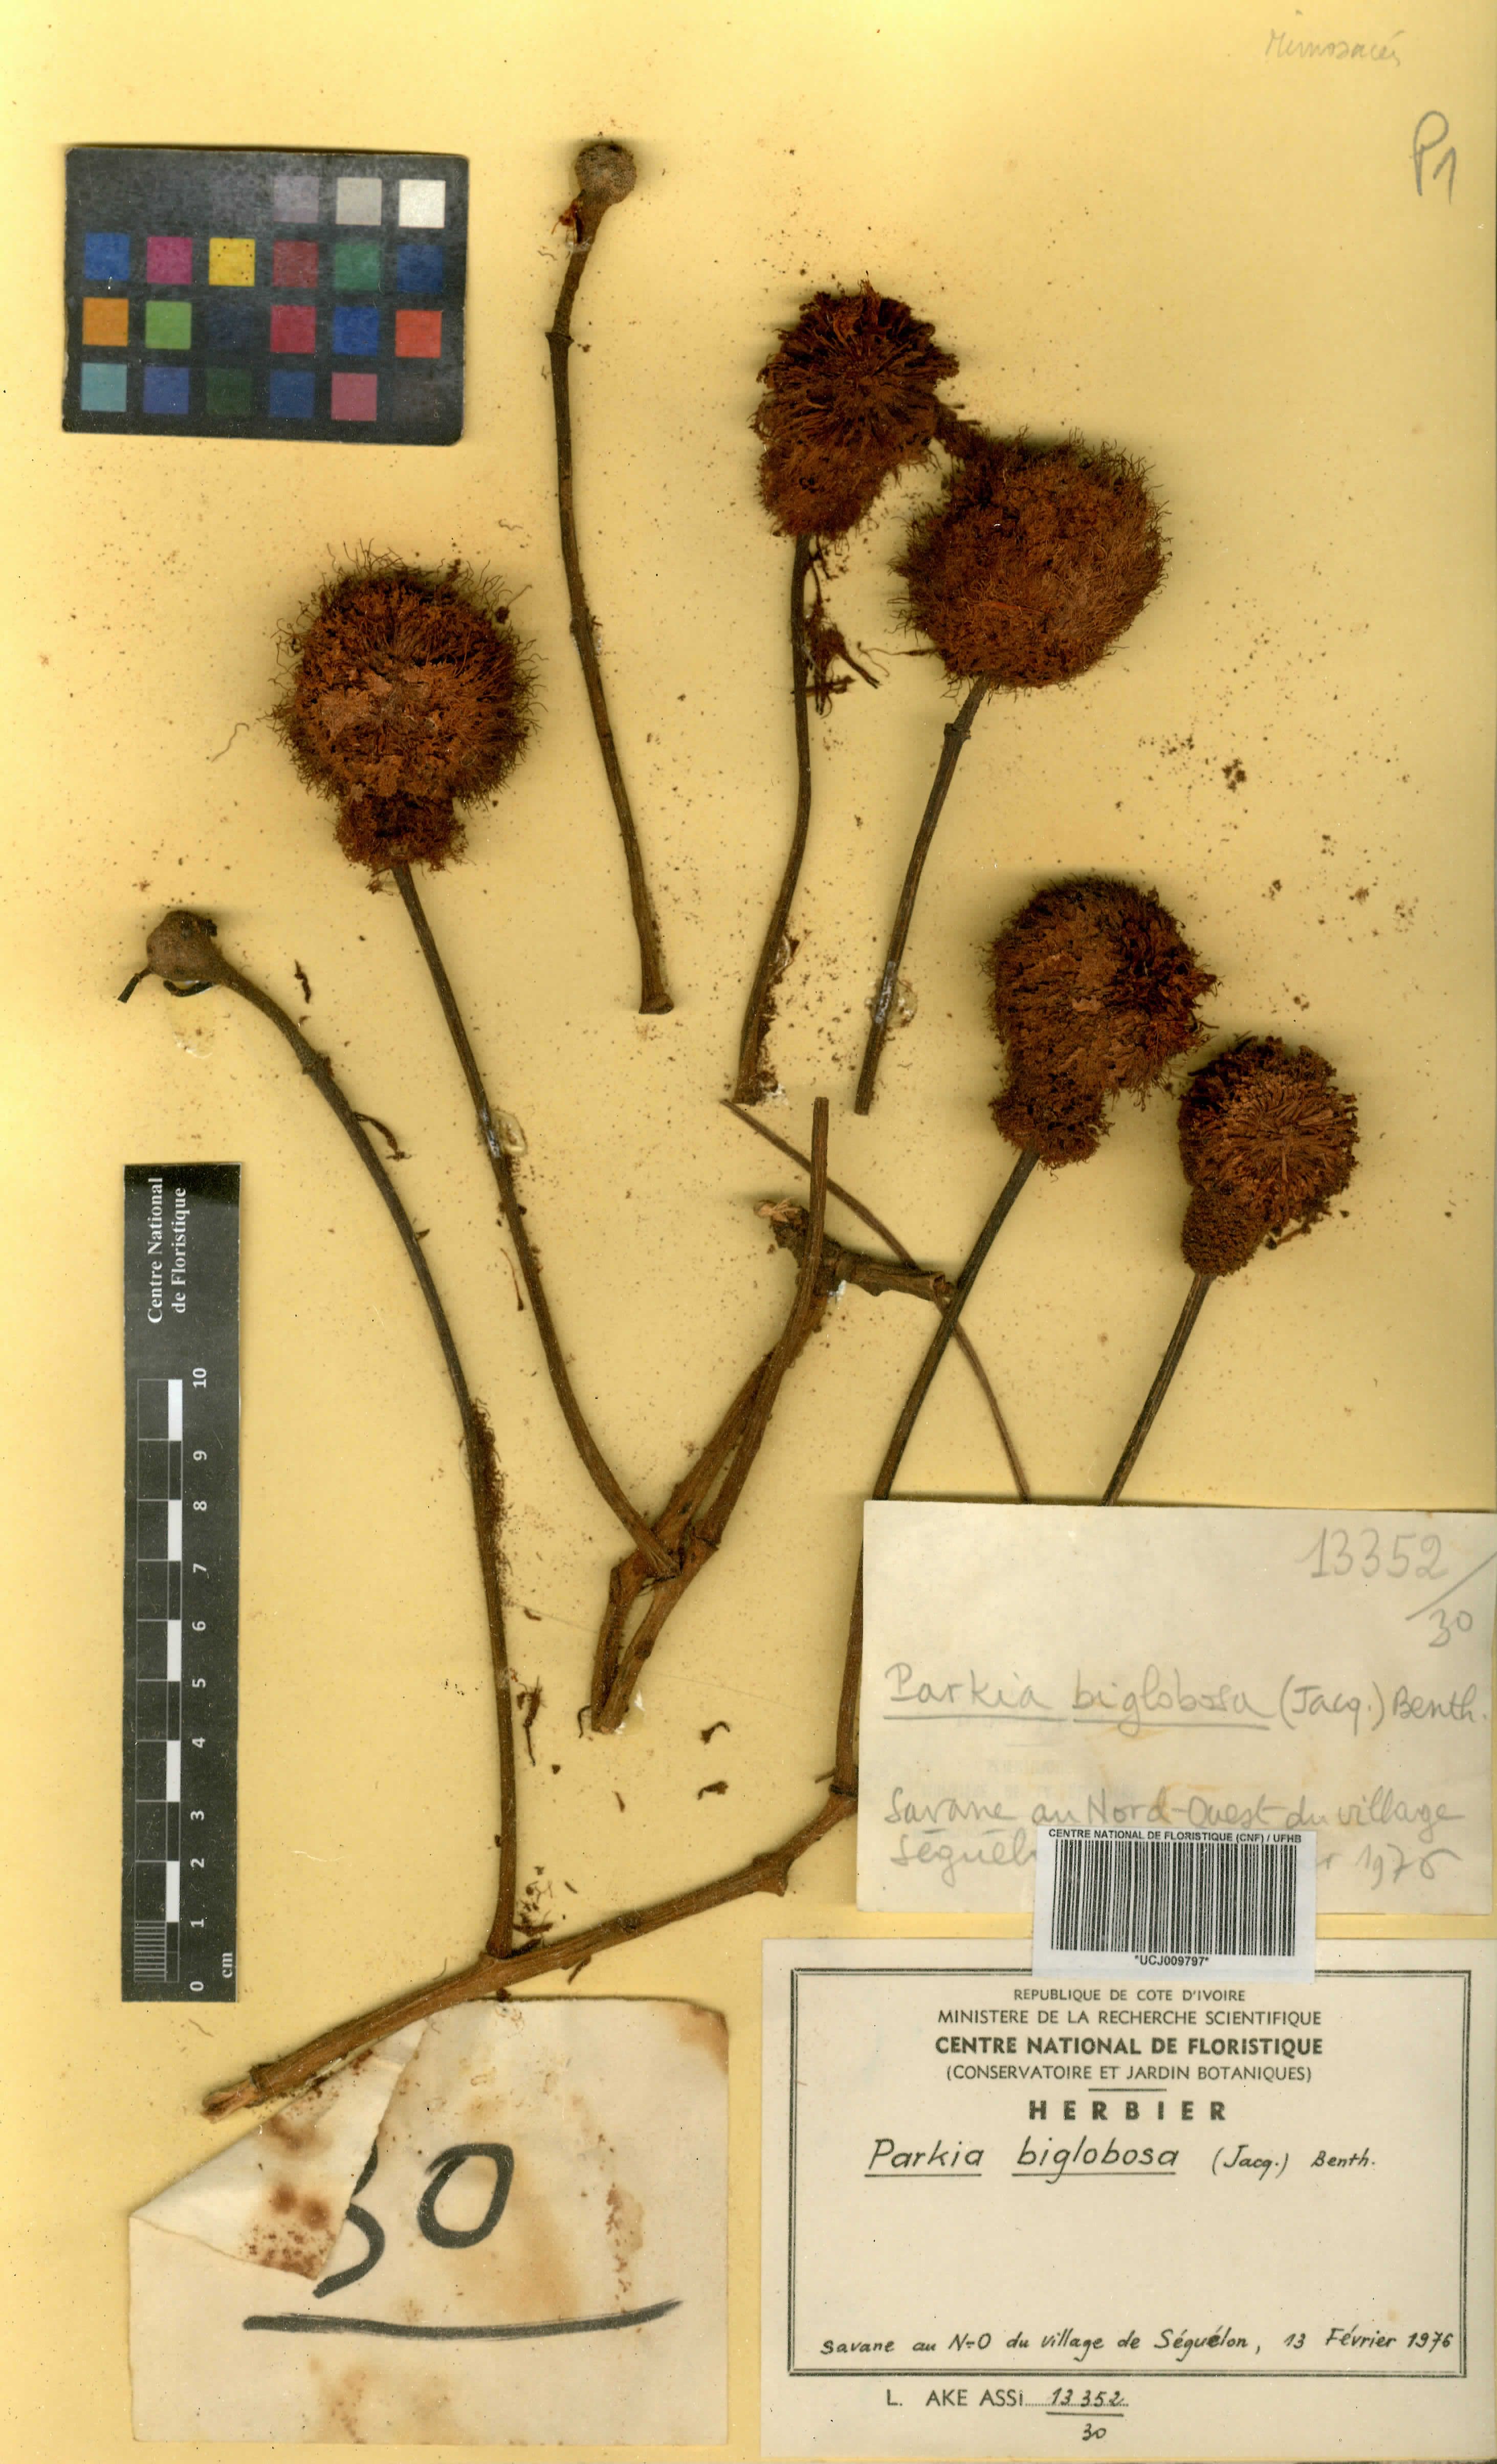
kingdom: Plantae
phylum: Tracheophyta
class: Magnoliopsida
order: Fabales
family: Fabaceae
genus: Parkia
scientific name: Parkia timoriana
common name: Legume
